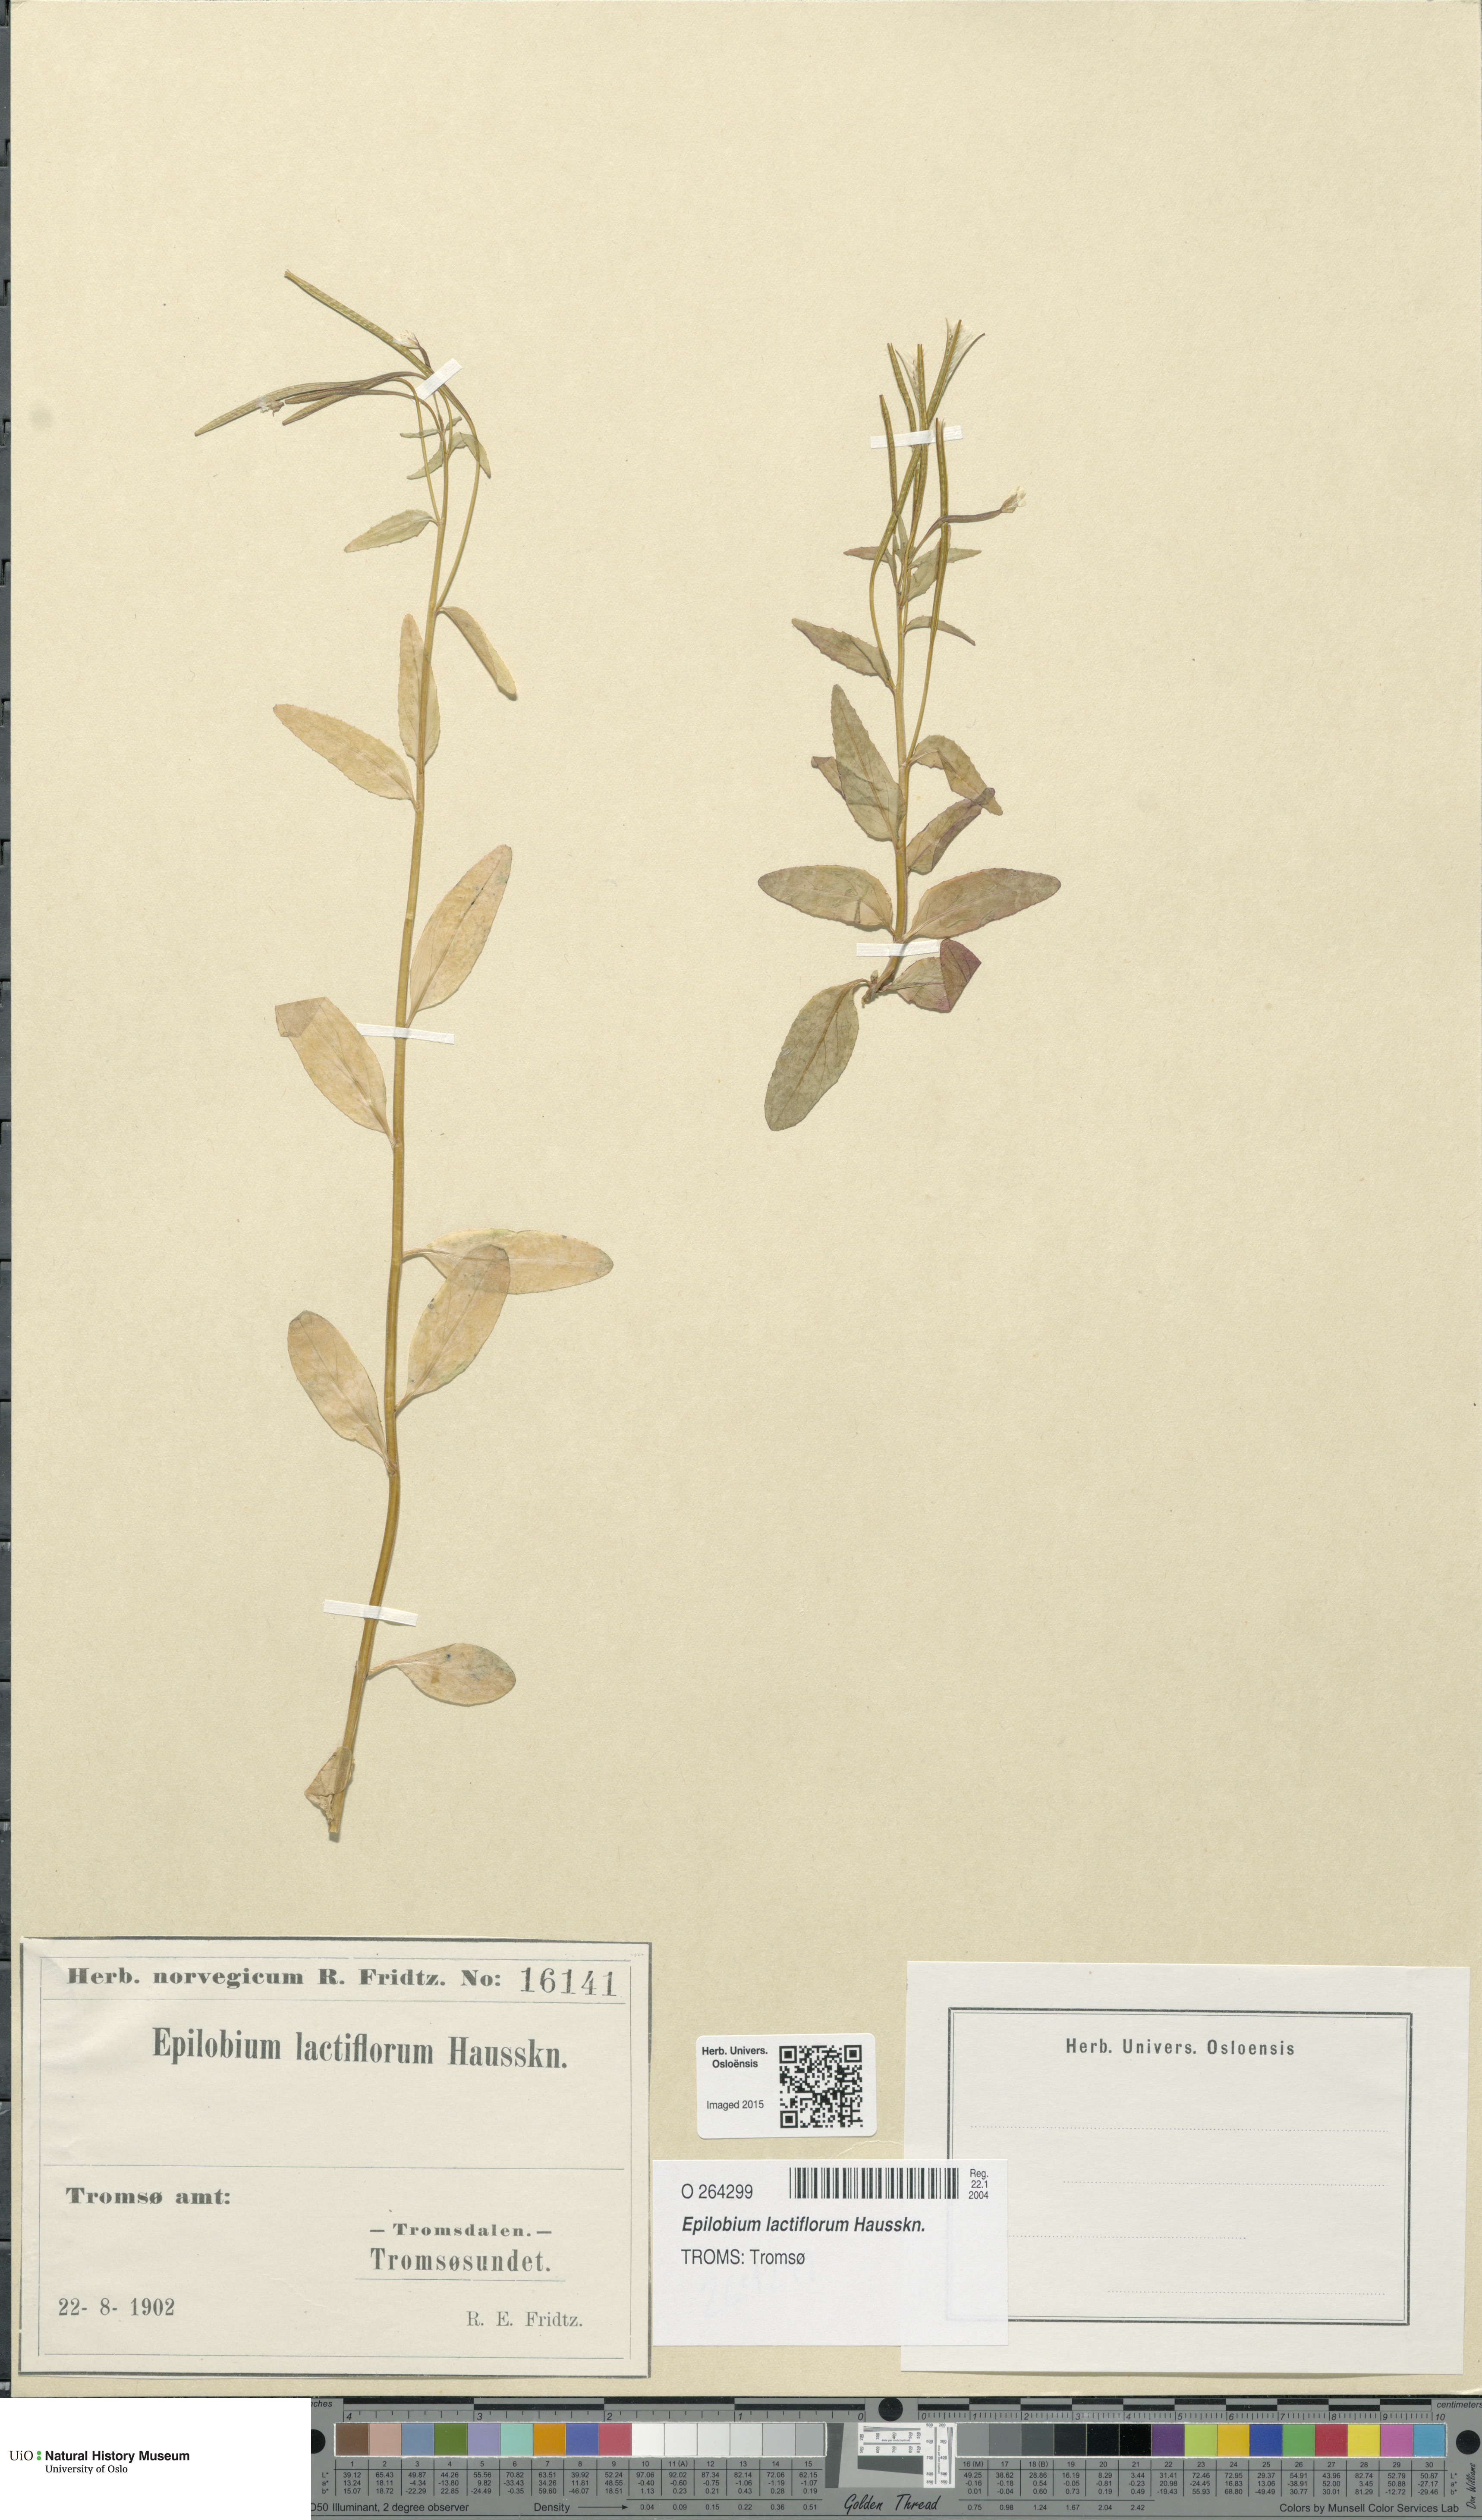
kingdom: Plantae
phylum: Tracheophyta
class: Magnoliopsida
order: Myrtales
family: Onagraceae
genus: Epilobium
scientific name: Epilobium lactiflorum
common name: Milkflower willowherb
